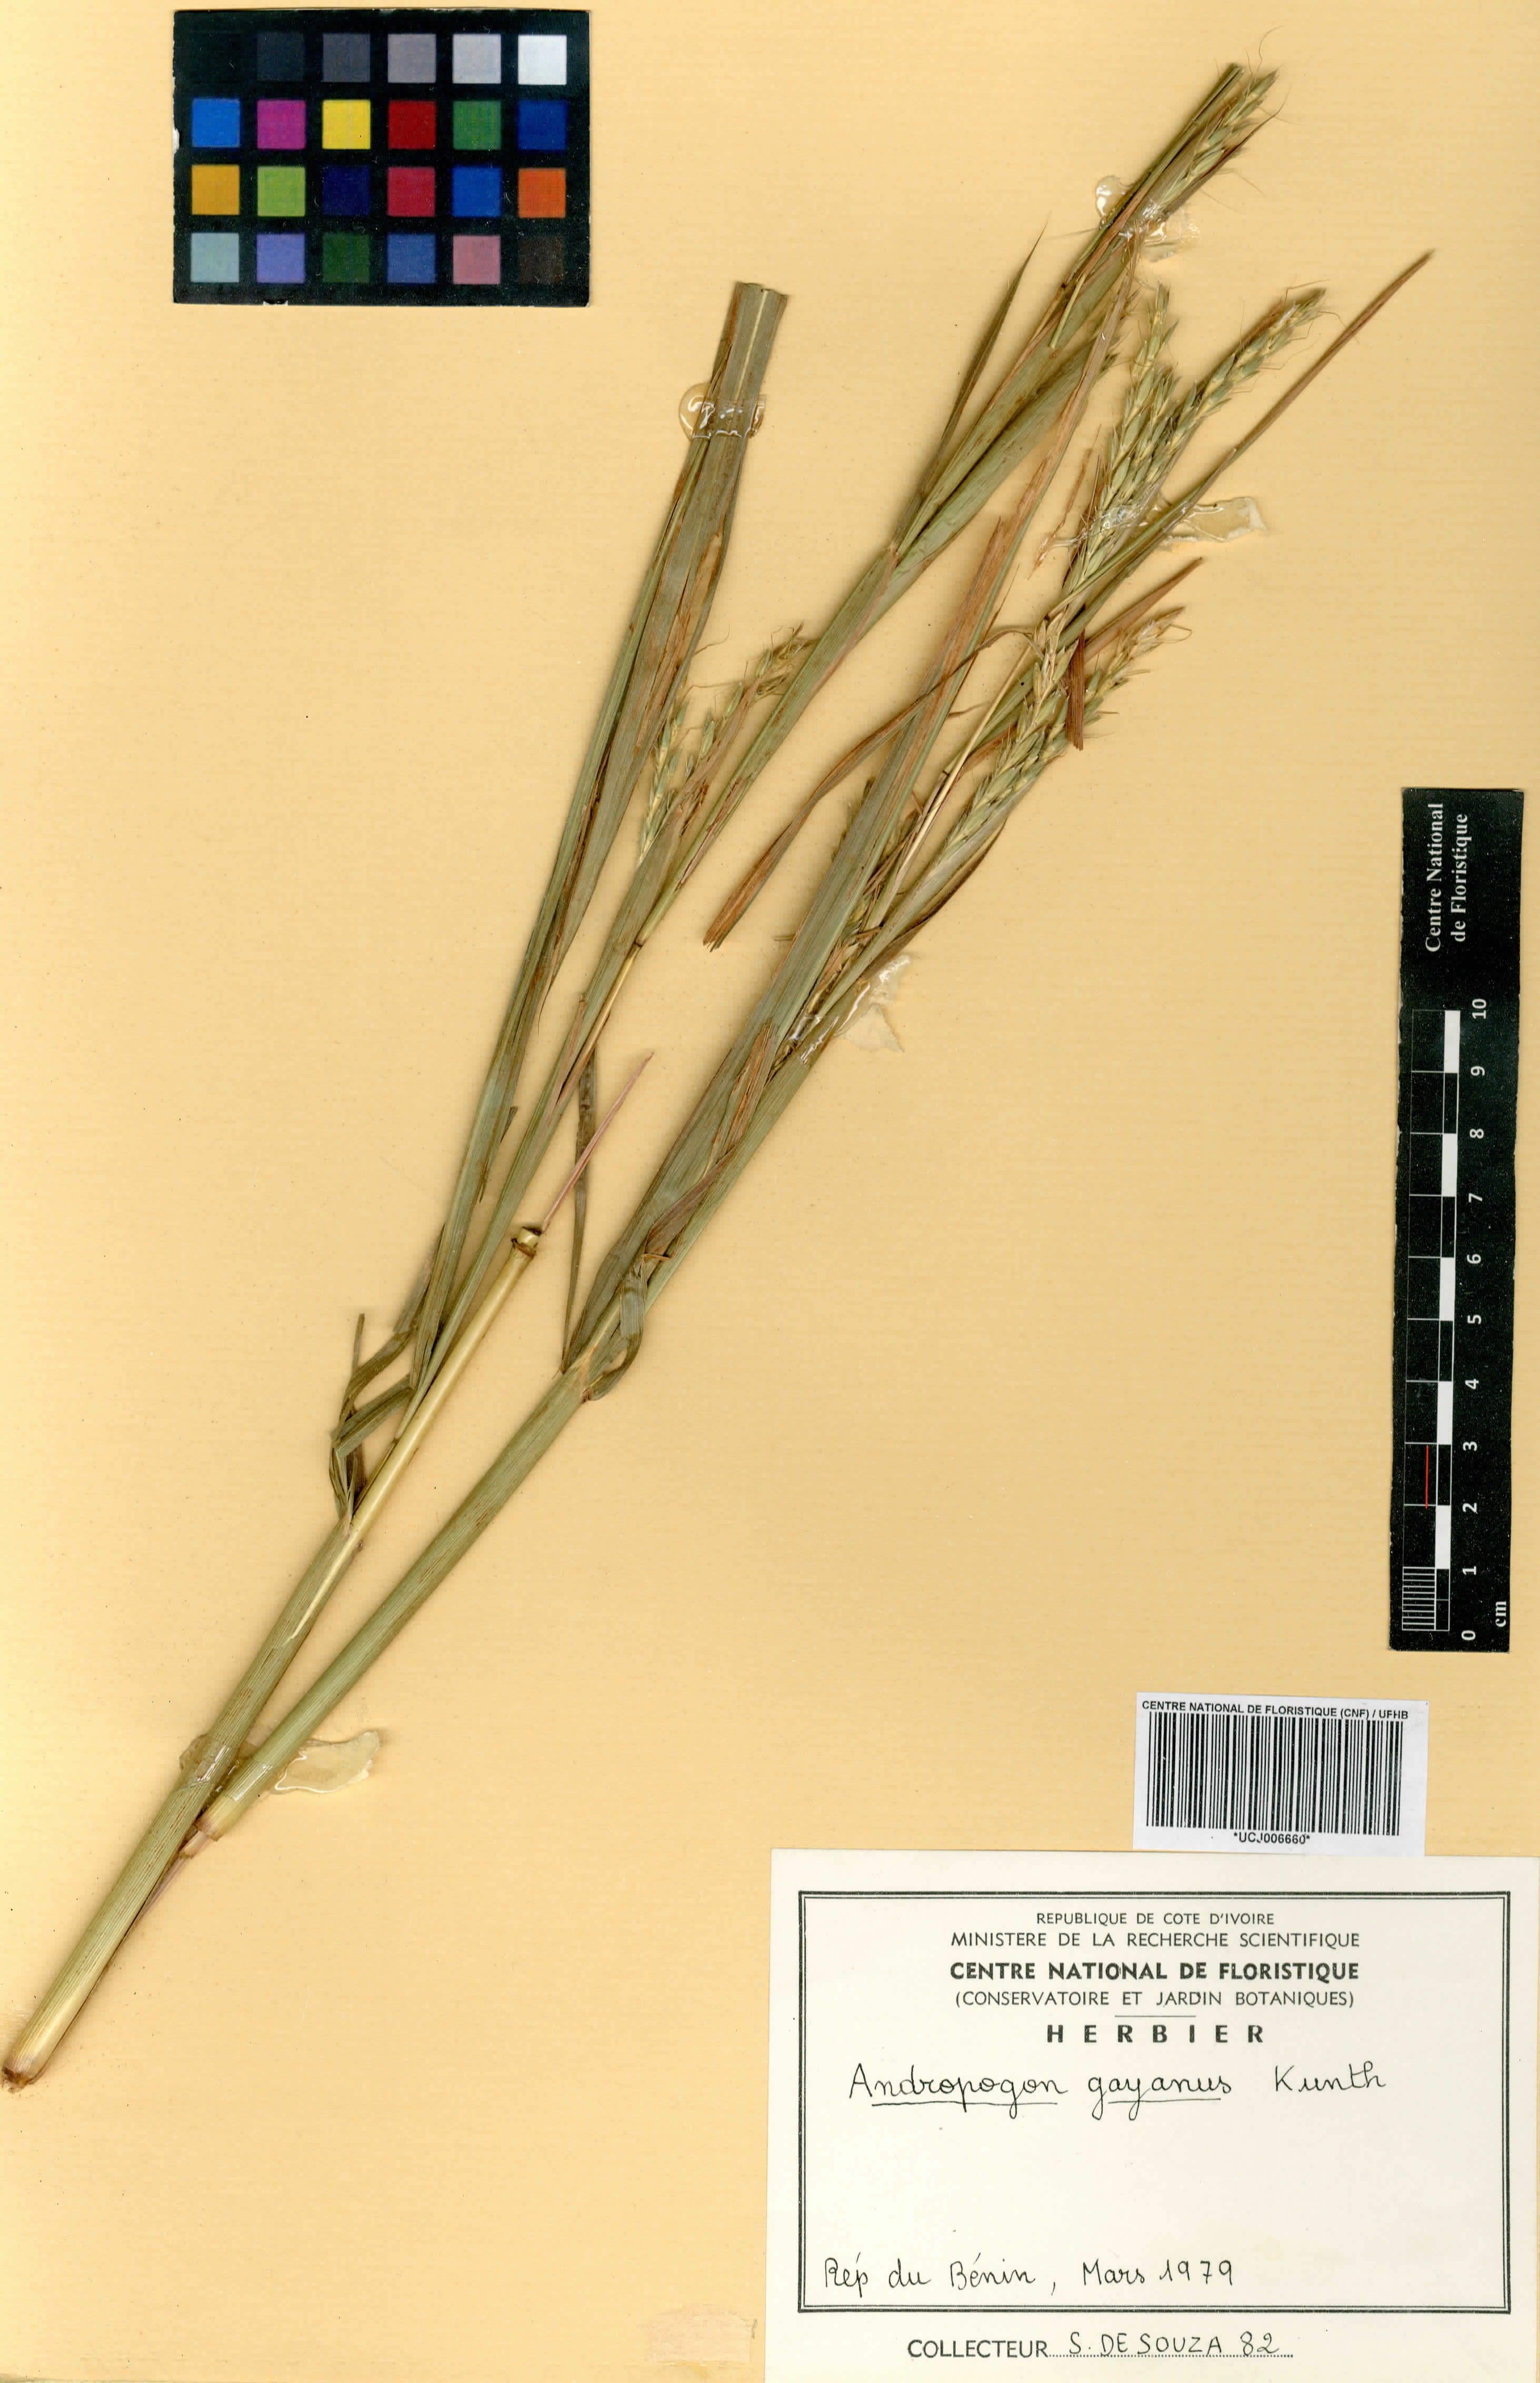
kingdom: Plantae
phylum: Tracheophyta
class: Liliopsida
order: Poales
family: Poaceae
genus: Andropogon
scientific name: Andropogon gayanus
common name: Tambuki grass
